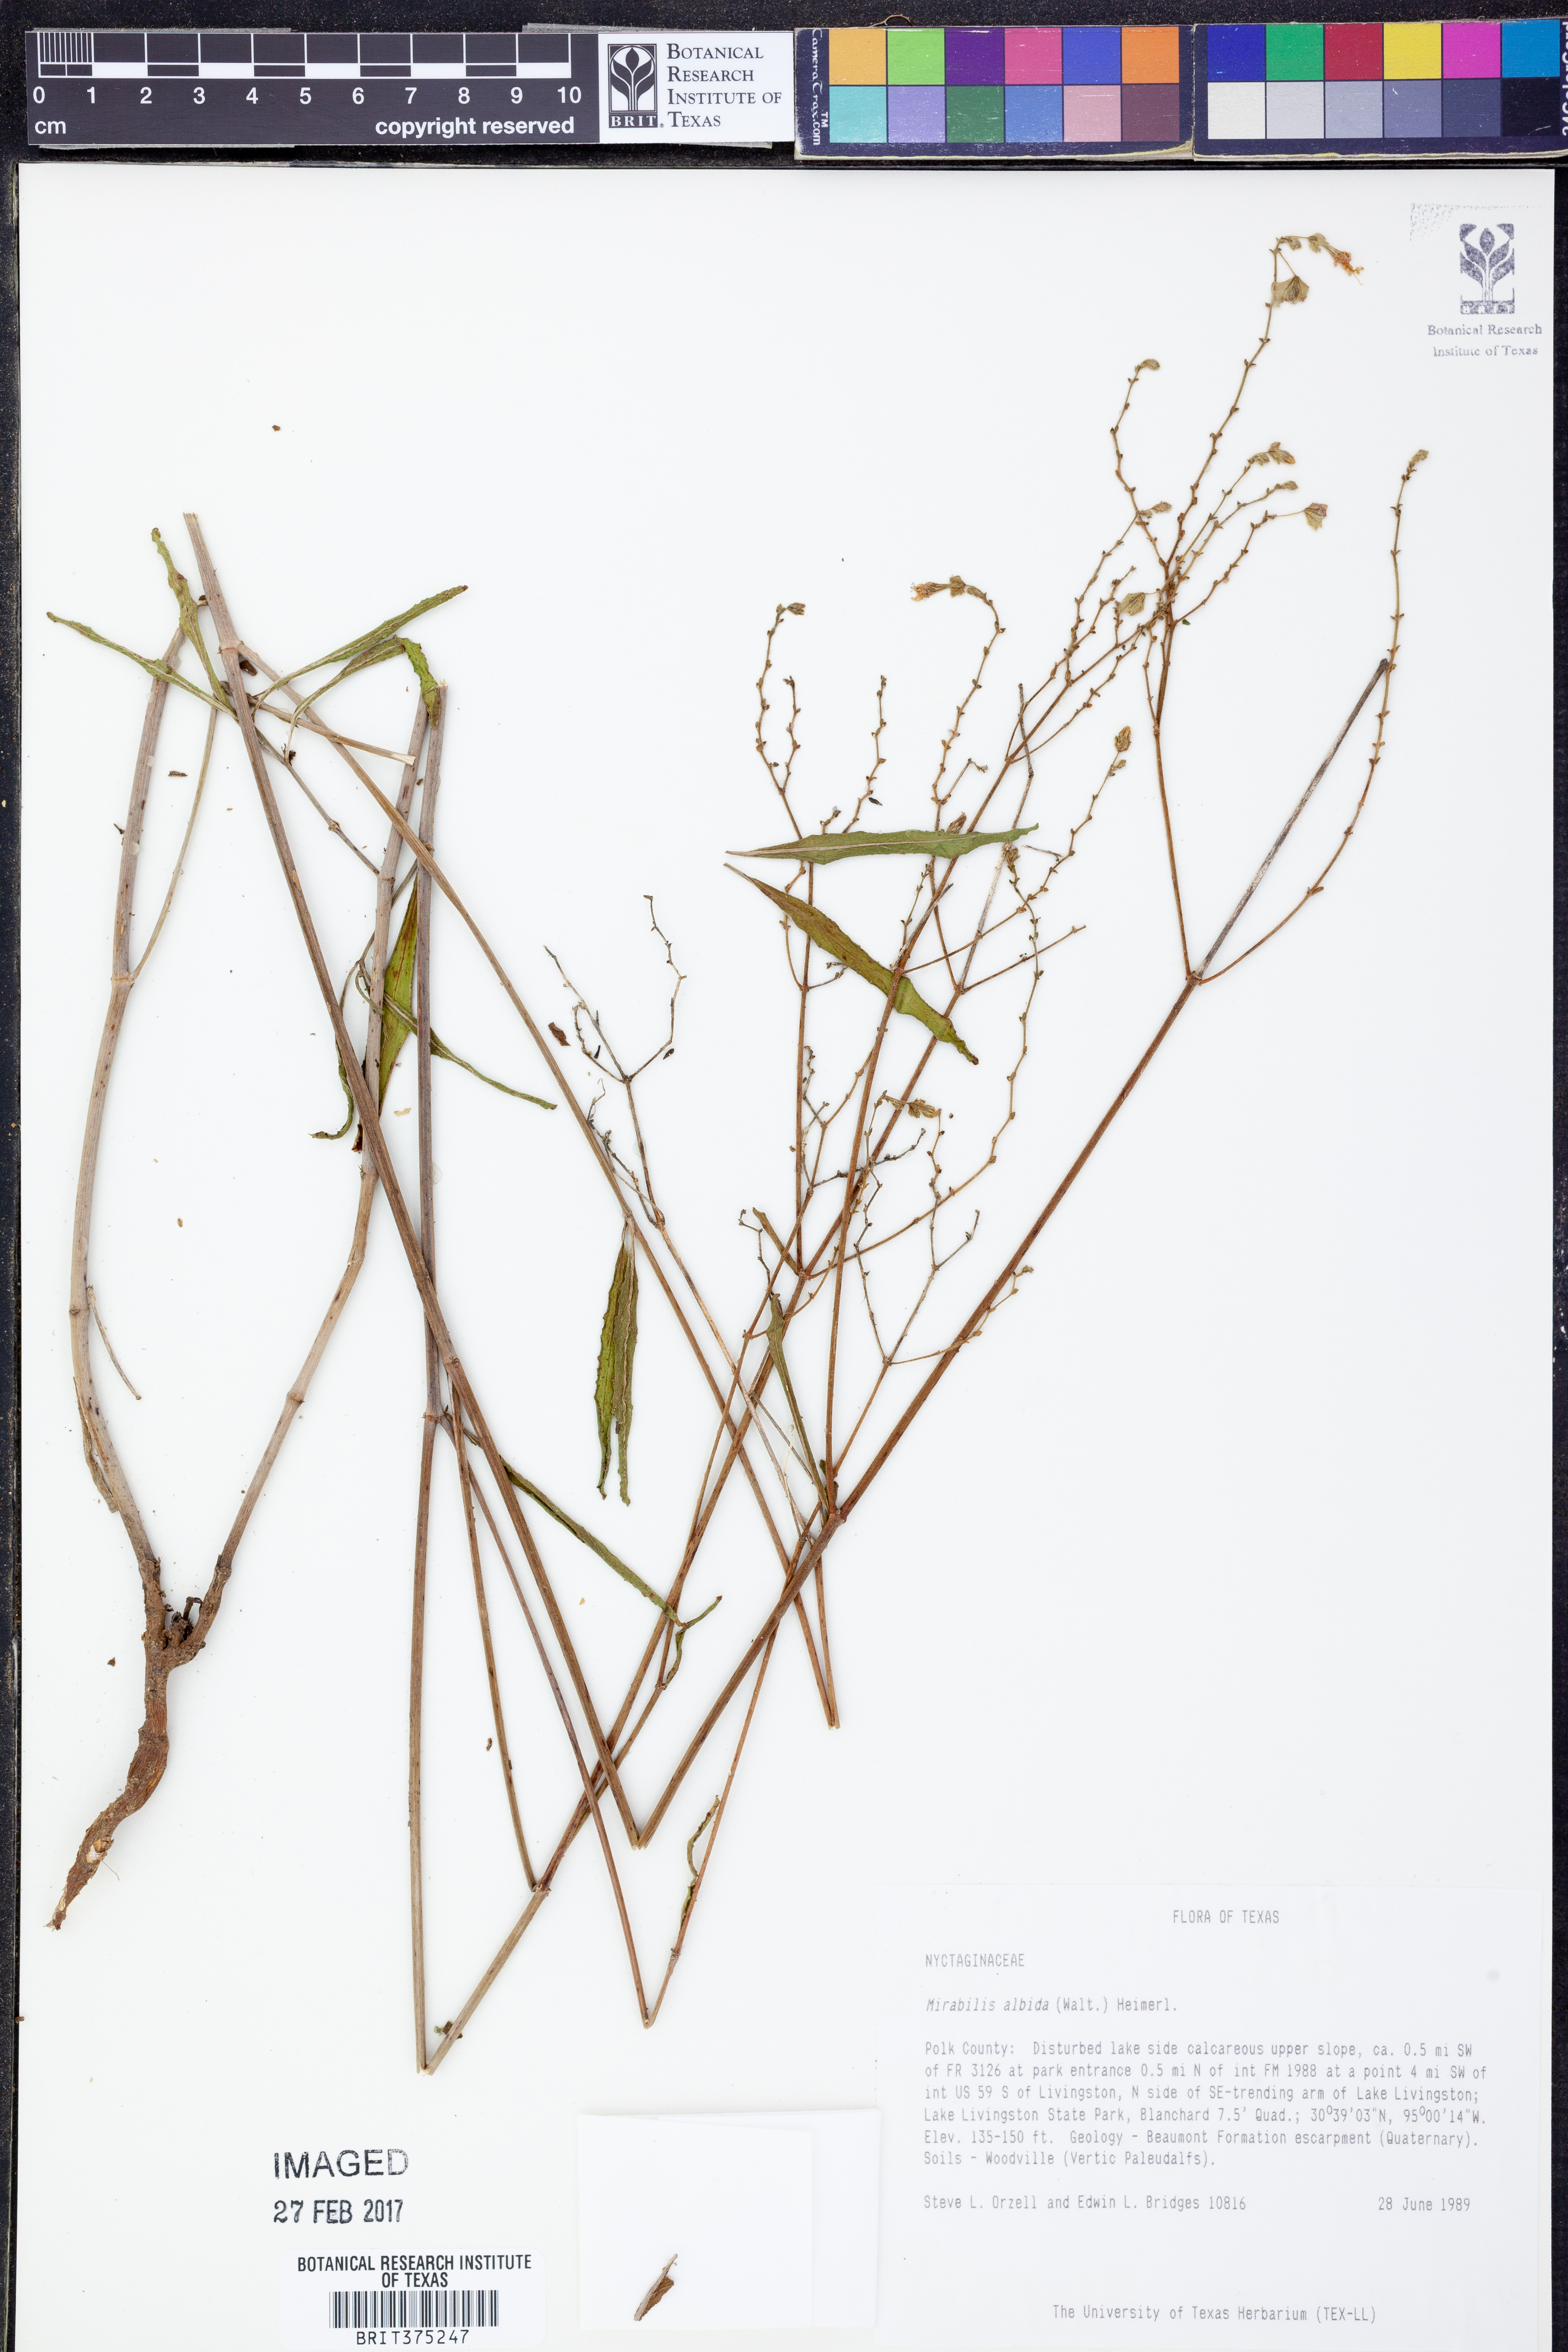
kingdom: Plantae
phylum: Tracheophyta
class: Magnoliopsida
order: Caryophyllales
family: Nyctaginaceae
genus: Mirabilis
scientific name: Mirabilis albida
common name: Hairy four-o'clock
